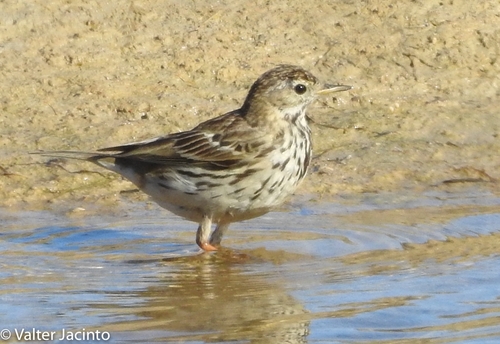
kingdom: Animalia
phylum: Chordata
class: Aves
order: Passeriformes
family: Motacillidae
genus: Anthus
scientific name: Anthus pratensis
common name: Meadow pipit
